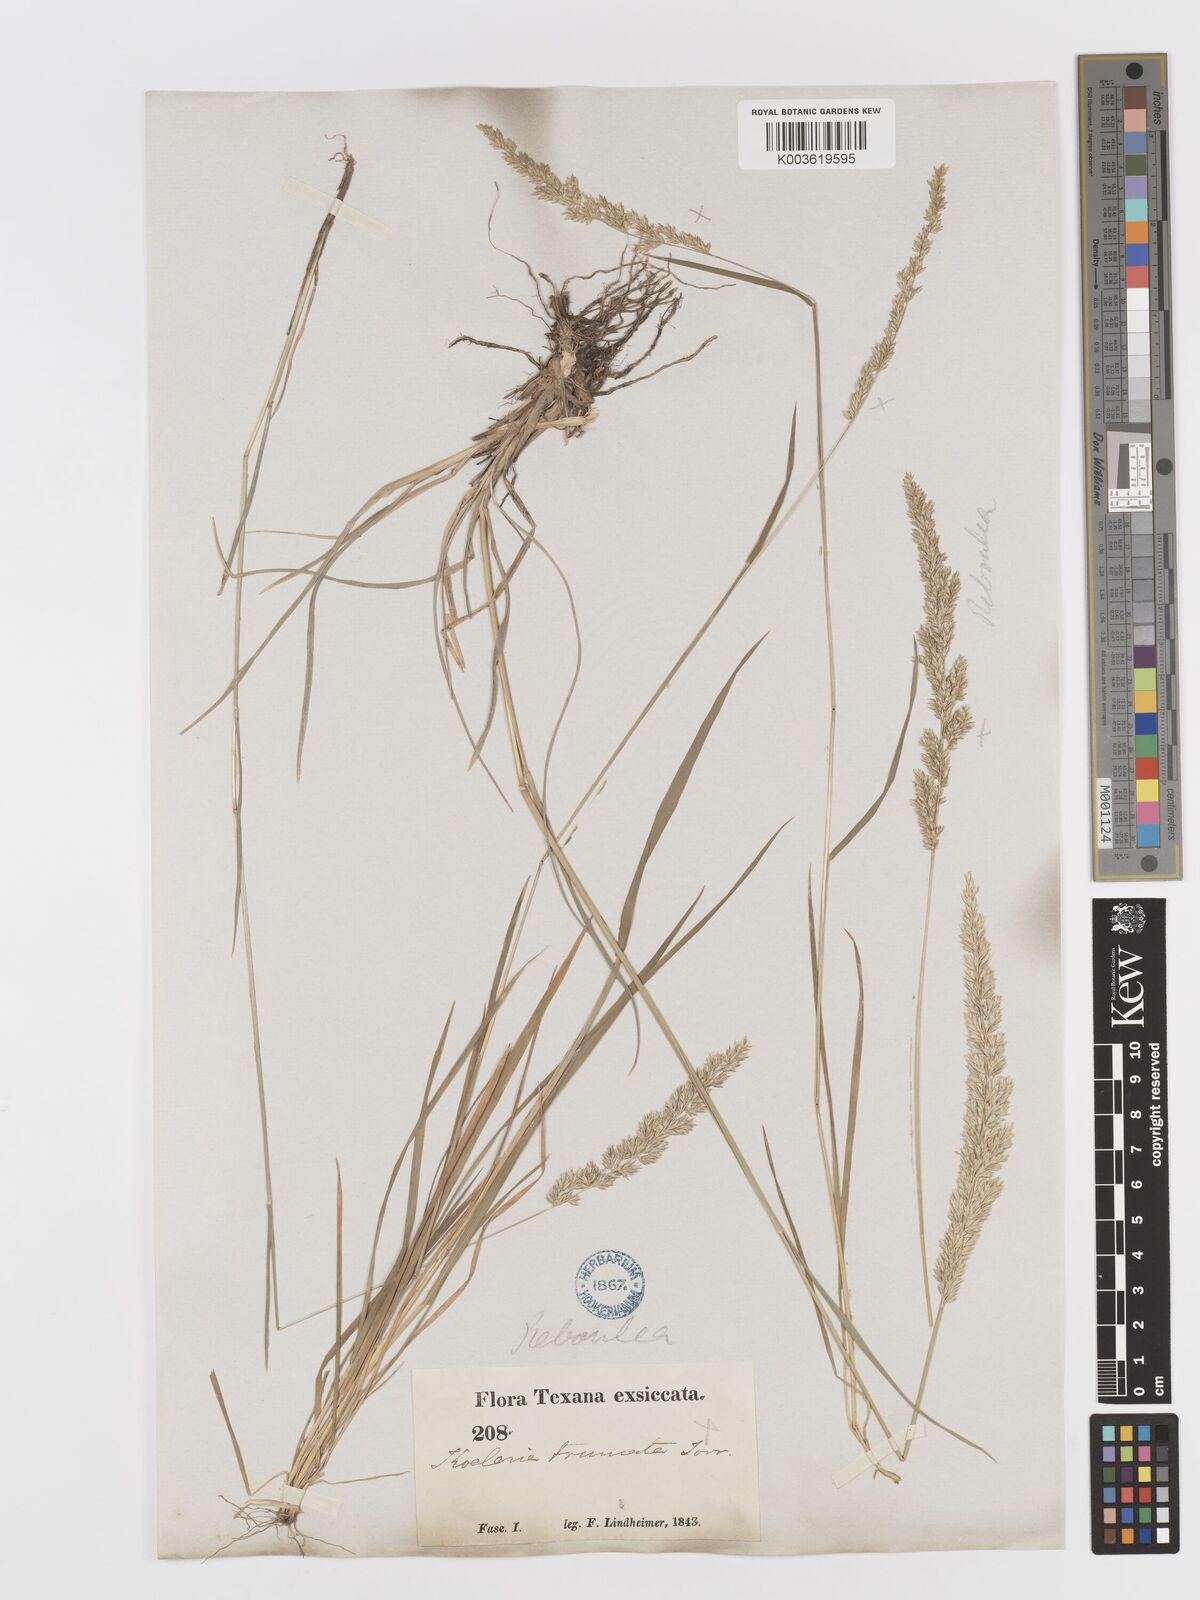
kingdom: Plantae
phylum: Tracheophyta
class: Liliopsida
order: Poales
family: Poaceae
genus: Sphenopholis
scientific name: Sphenopholis obtusata
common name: Prairie grass
